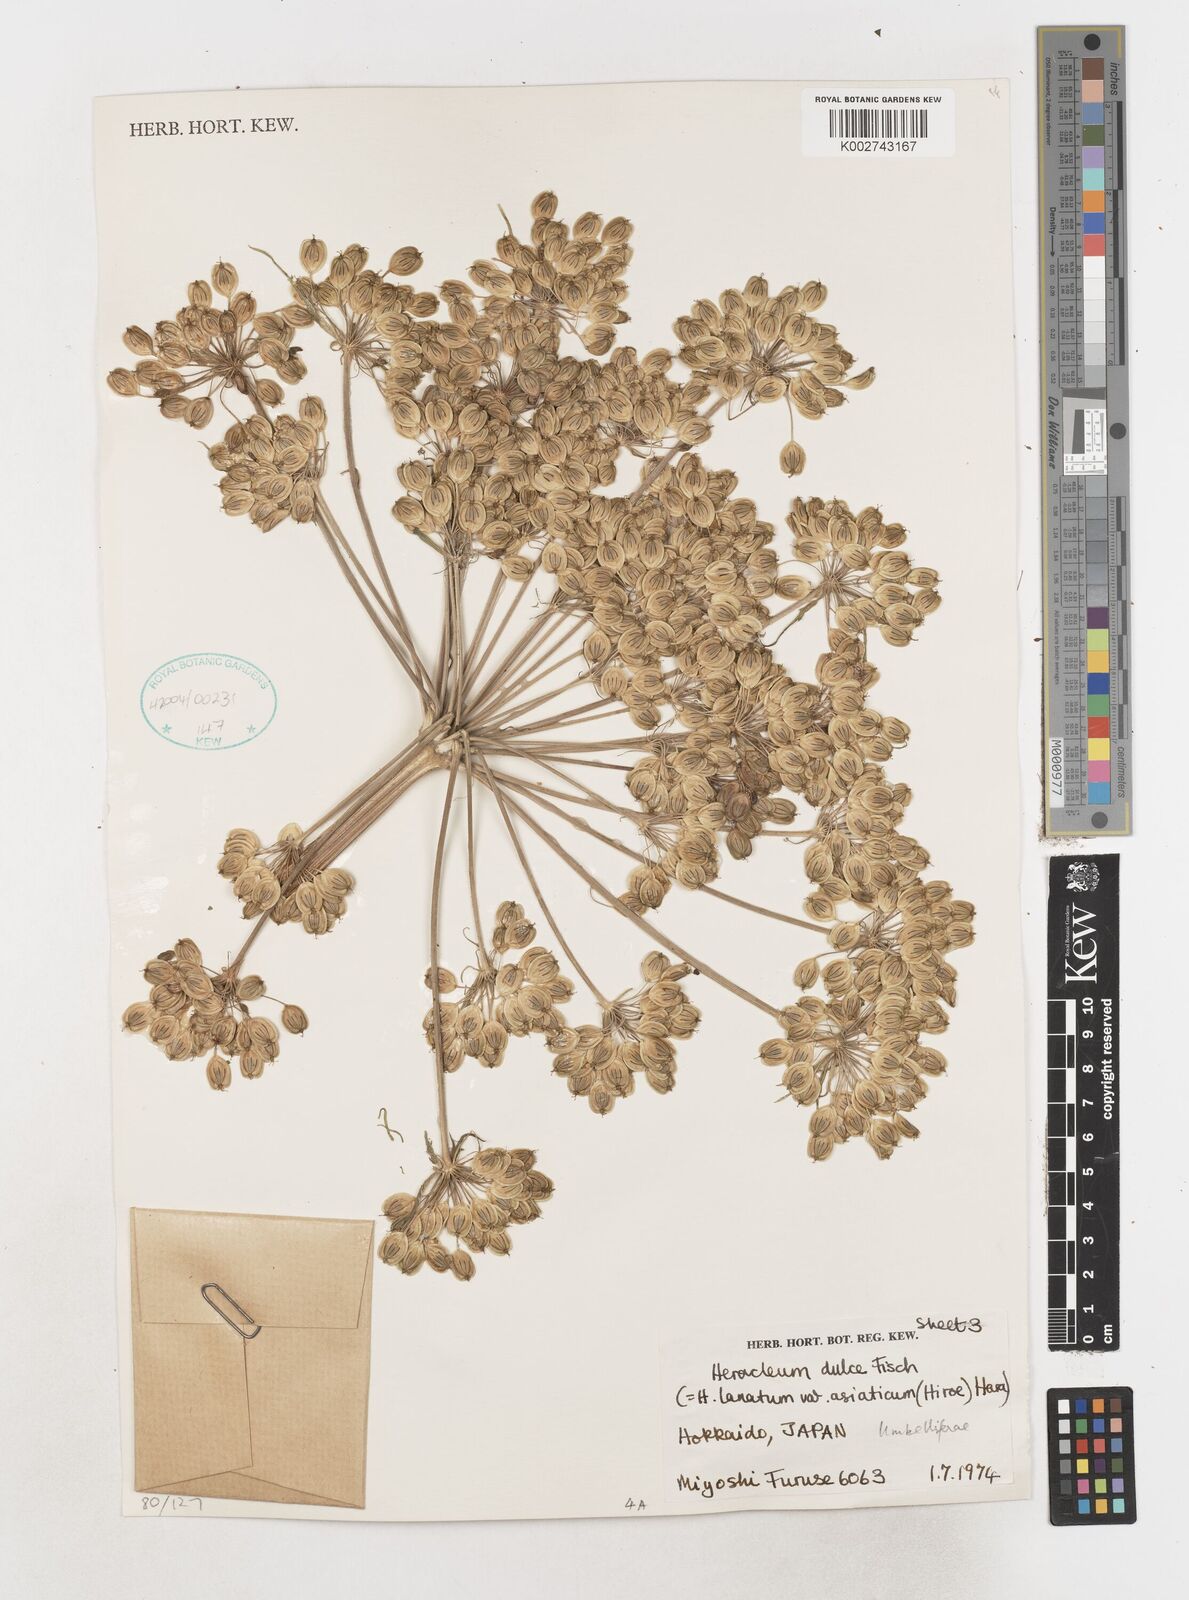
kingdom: Plantae
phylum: Tracheophyta
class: Magnoliopsida
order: Apiales
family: Apiaceae
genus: Heracleum
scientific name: Heracleum maximum
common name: American cow parsnip
